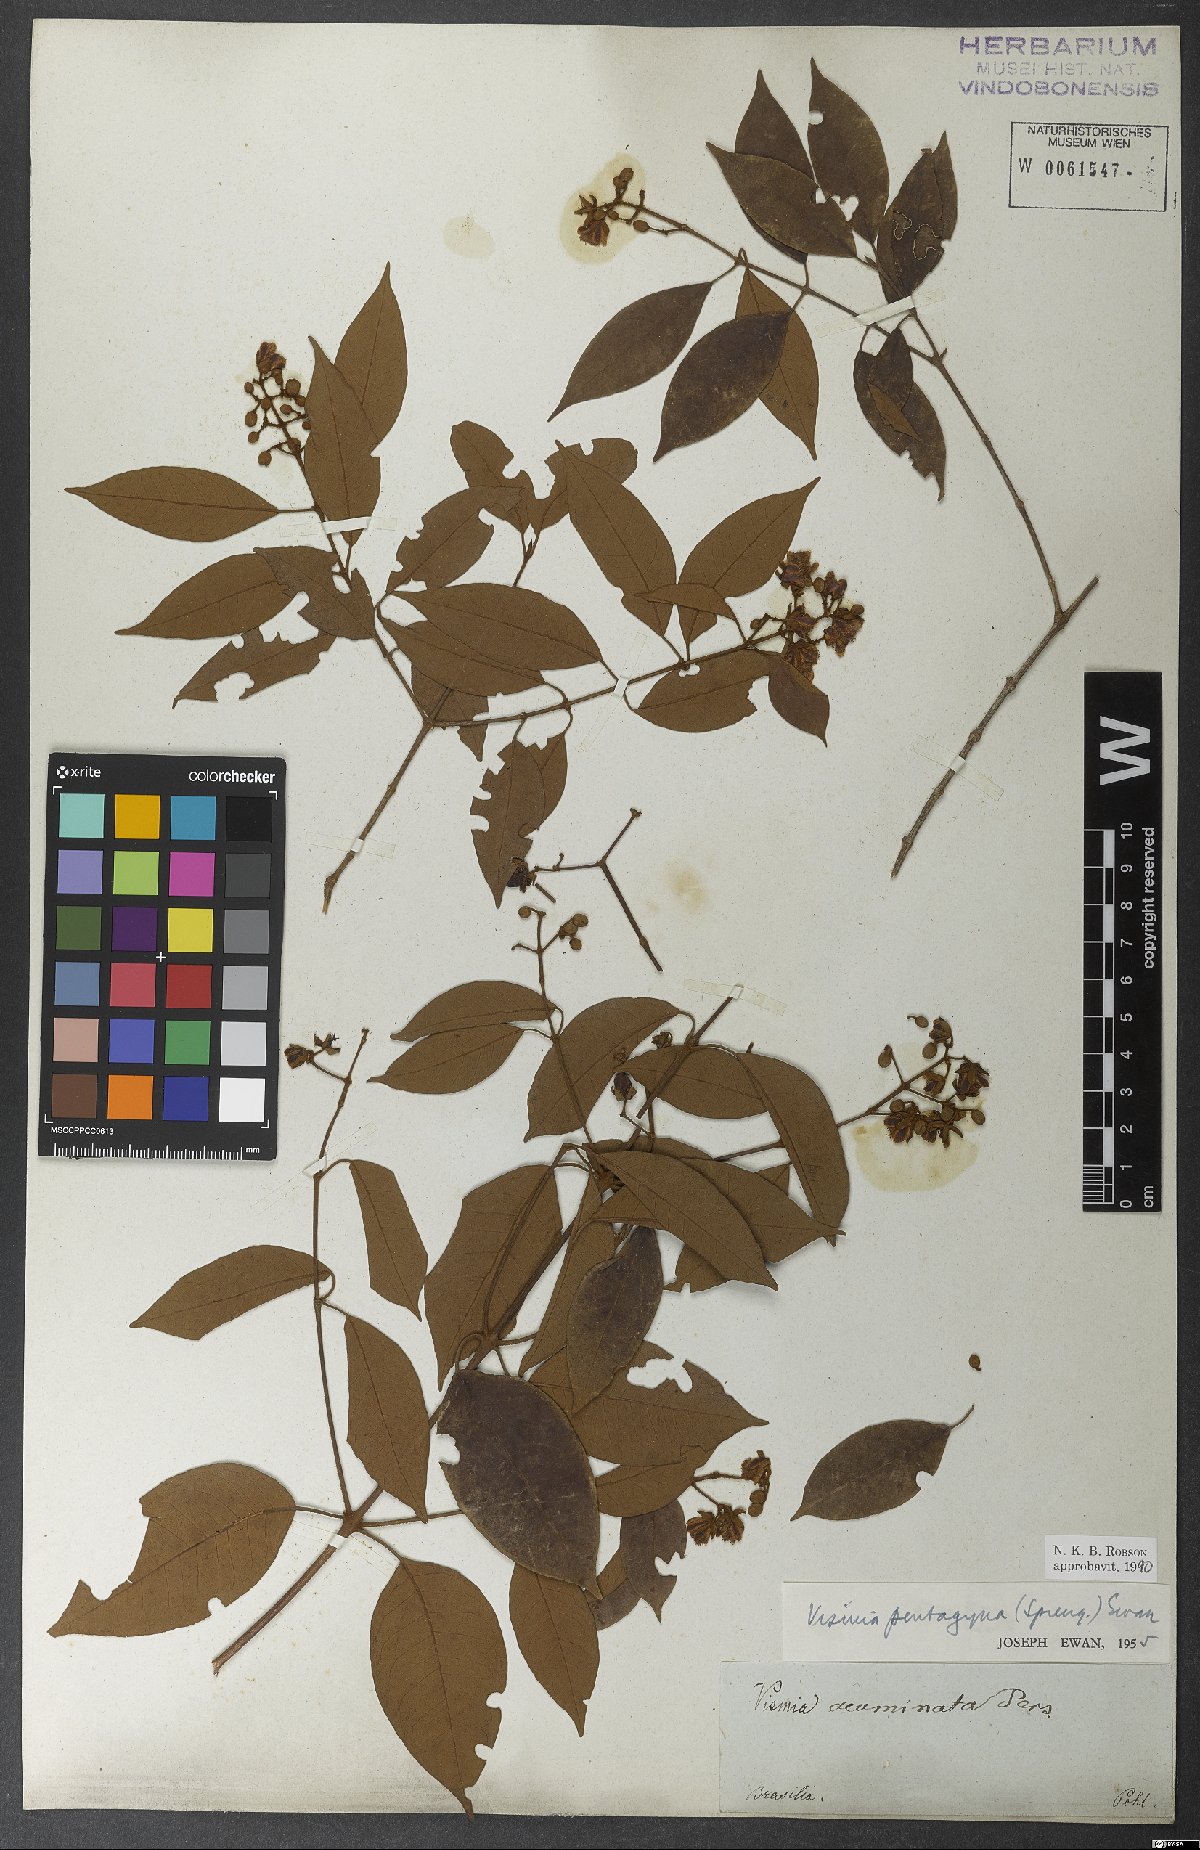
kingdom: Plantae
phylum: Tracheophyta
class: Magnoliopsida
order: Malpighiales
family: Hypericaceae
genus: Vismia
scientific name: Vismia pentagyna
